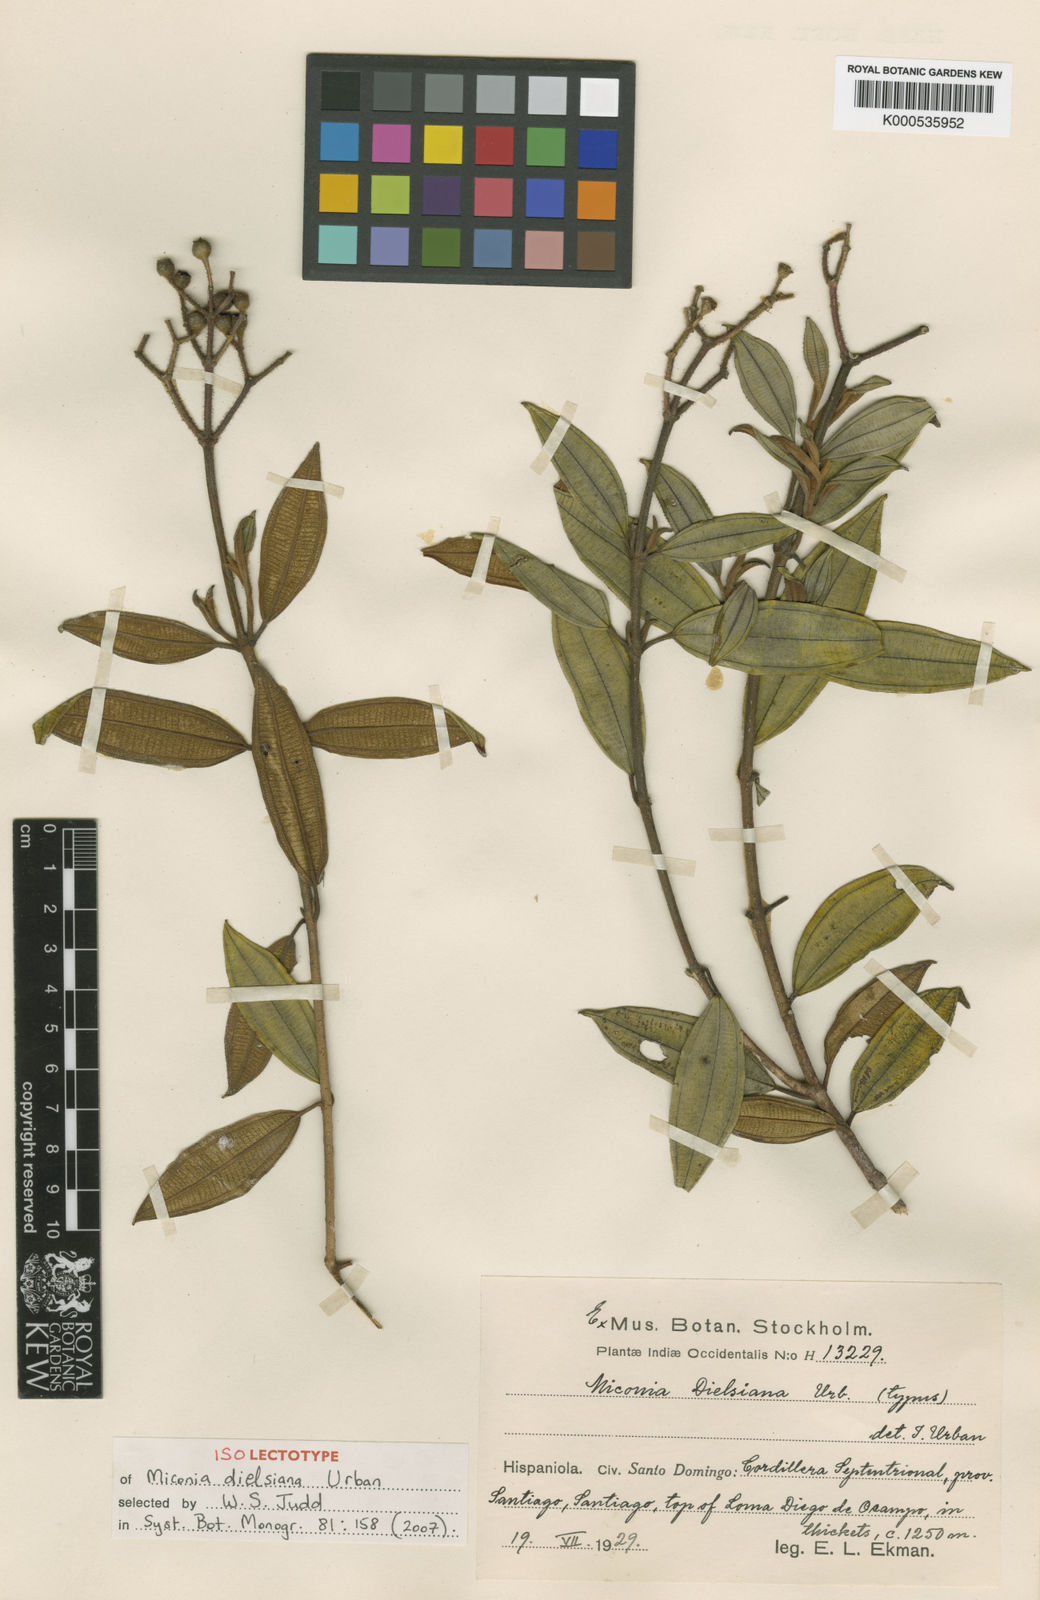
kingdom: Plantae
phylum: Tracheophyta
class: Magnoliopsida
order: Myrtales
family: Melastomataceae
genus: Miconia
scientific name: Miconia dielsiana
